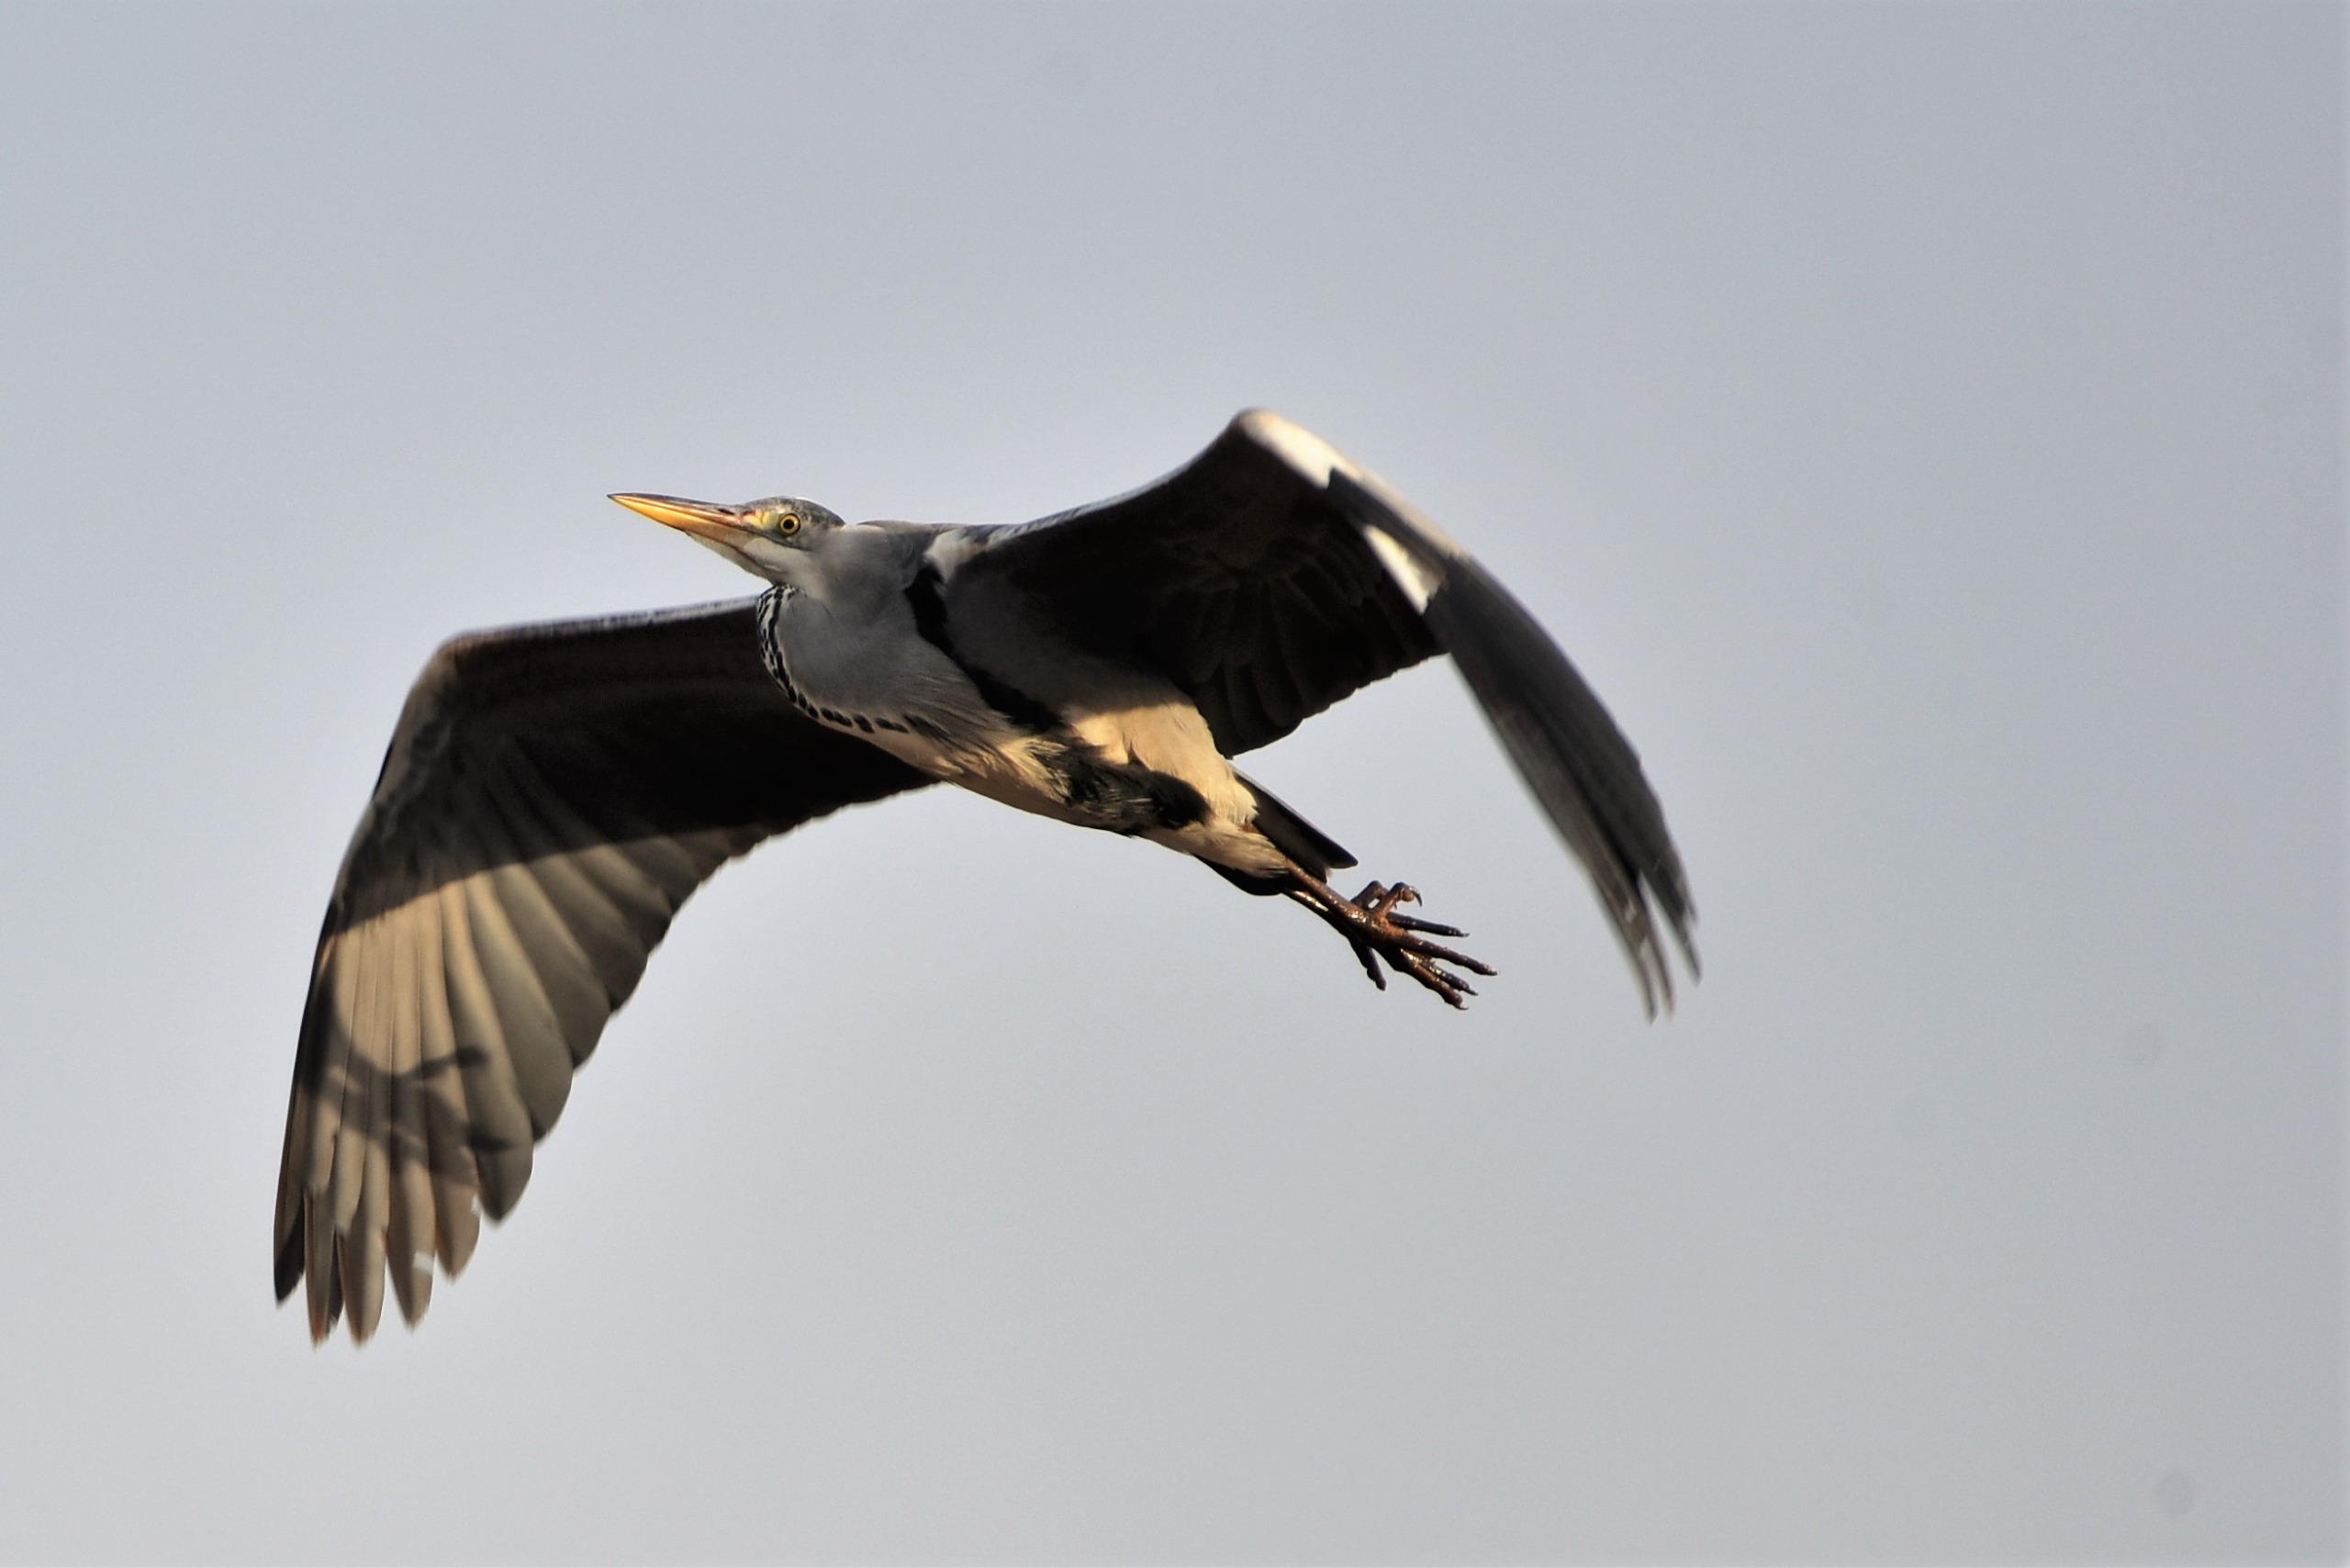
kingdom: Animalia
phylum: Chordata
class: Aves
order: Pelecaniformes
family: Ardeidae
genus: Ardea
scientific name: Ardea cinerea
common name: Fiskehejre
